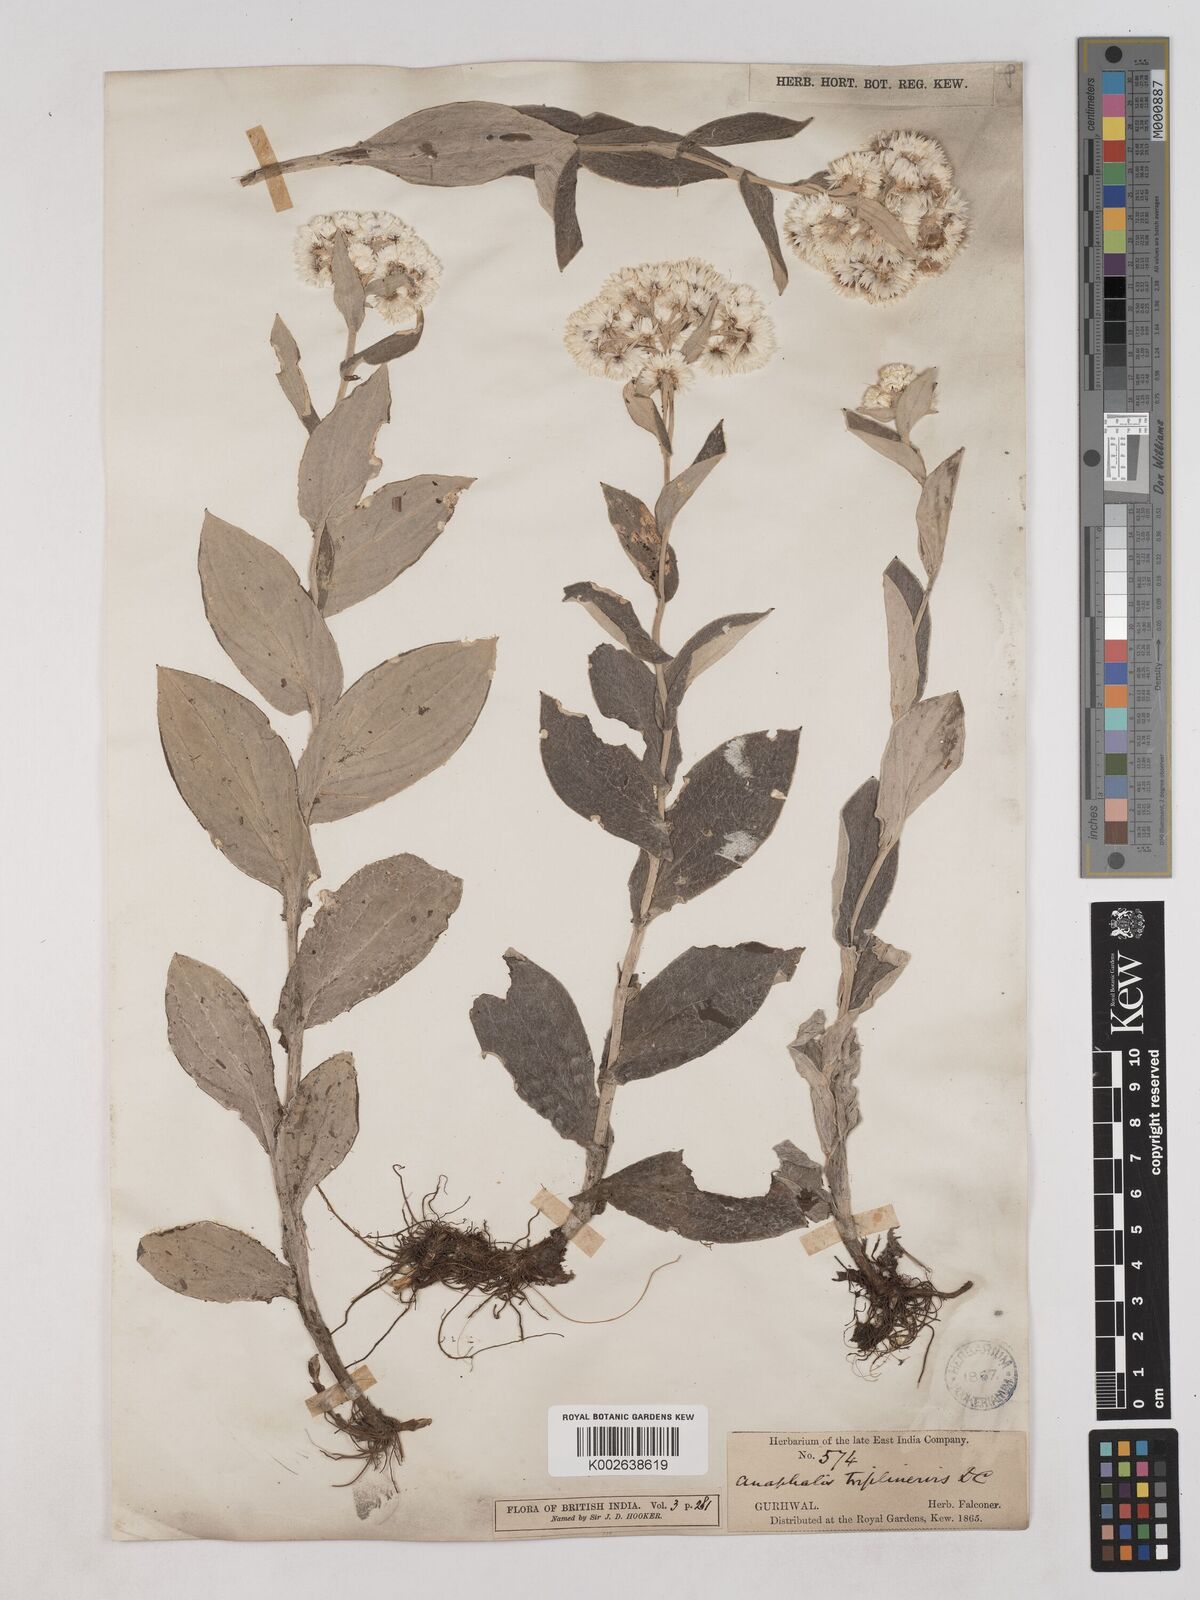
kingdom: Plantae
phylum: Tracheophyta
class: Magnoliopsida
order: Asterales
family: Asteraceae
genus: Anaphalis
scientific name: Anaphalis triplinervis
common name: Pearly everlasting
